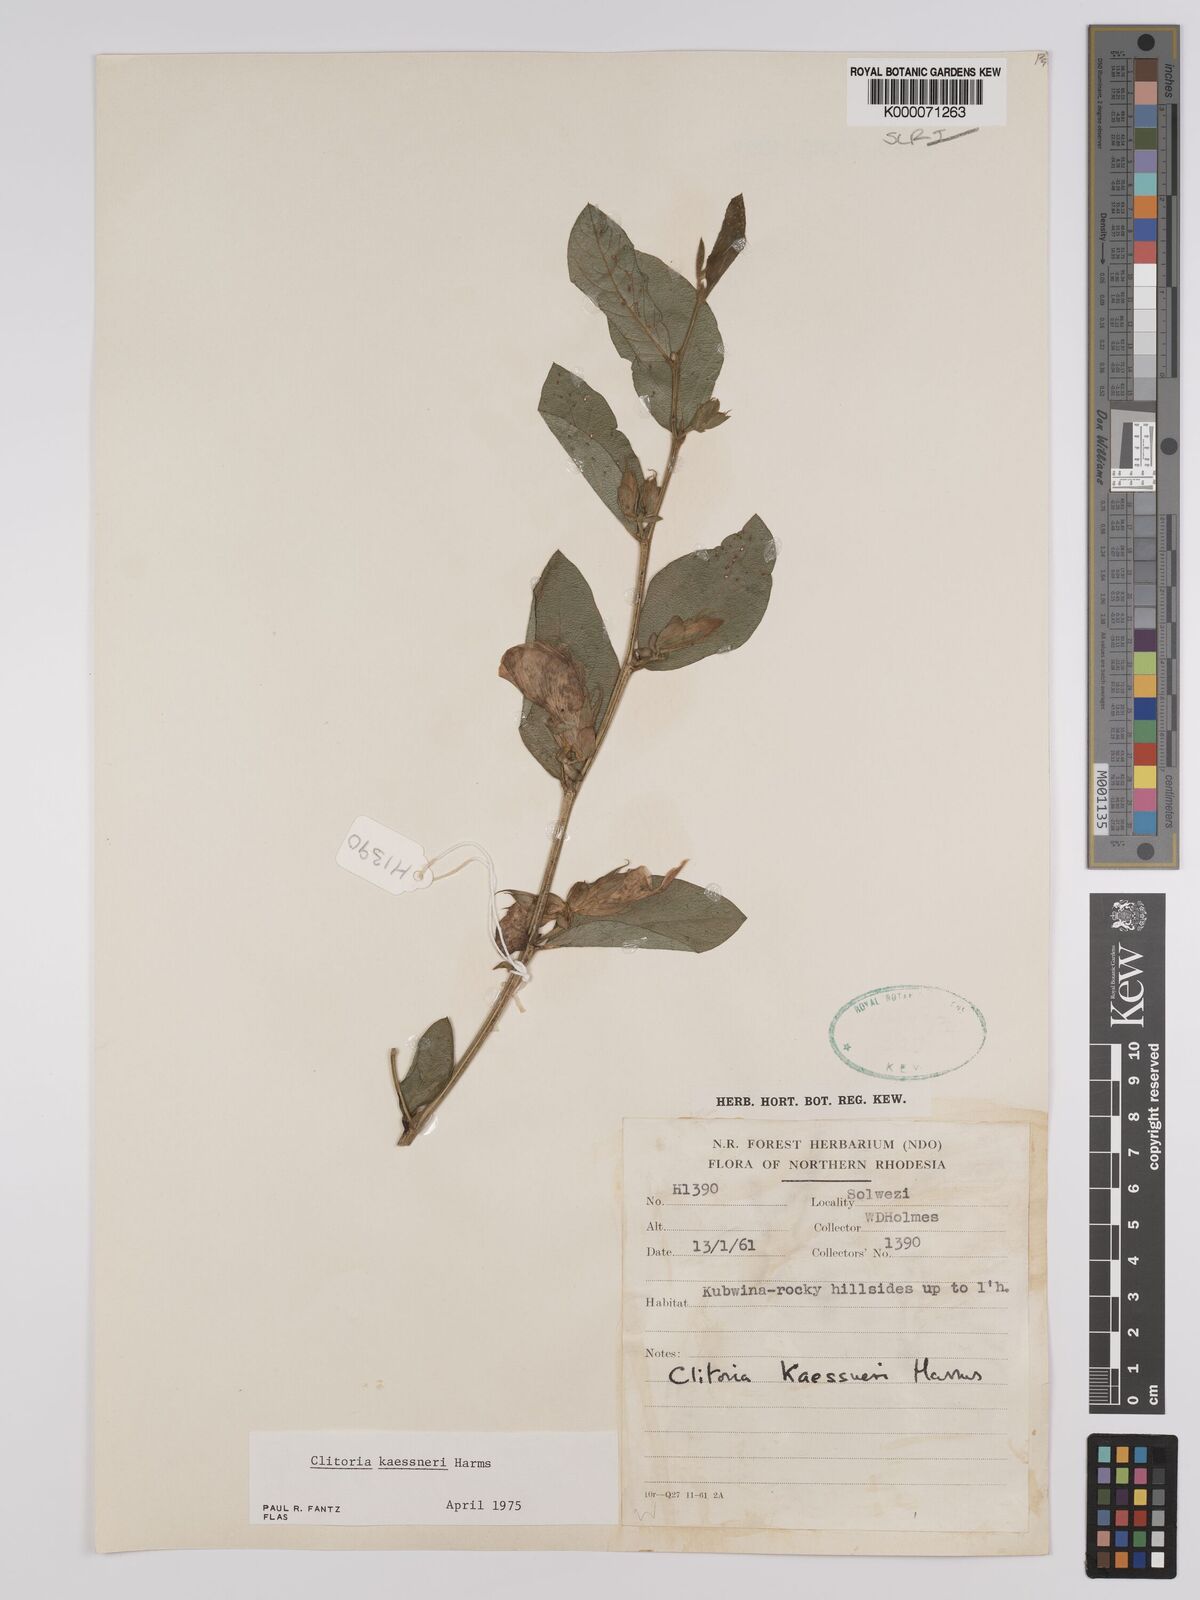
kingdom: Plantae
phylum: Tracheophyta
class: Magnoliopsida
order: Fabales
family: Fabaceae
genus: Clitoria
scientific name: Clitoria kaessneri
